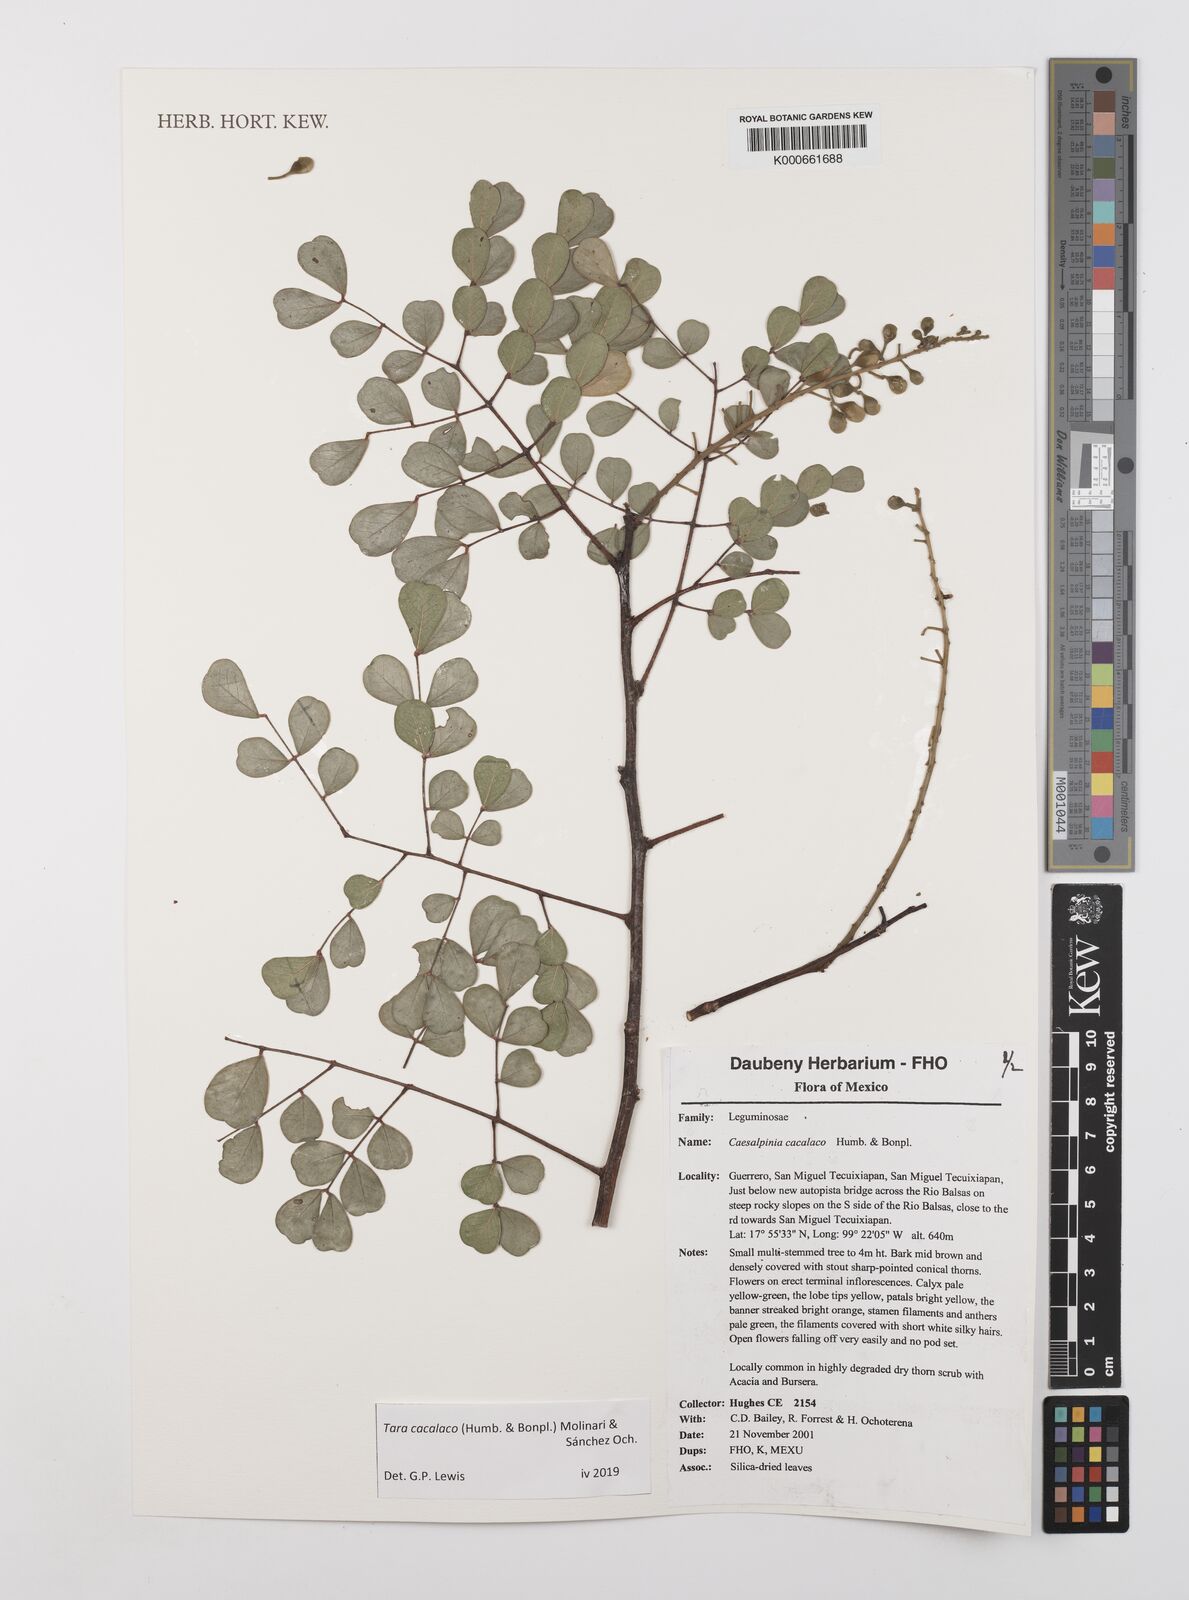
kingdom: Plantae
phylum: Tracheophyta
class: Magnoliopsida
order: Fabales
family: Fabaceae
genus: Tara
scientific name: Tara cacalaco
